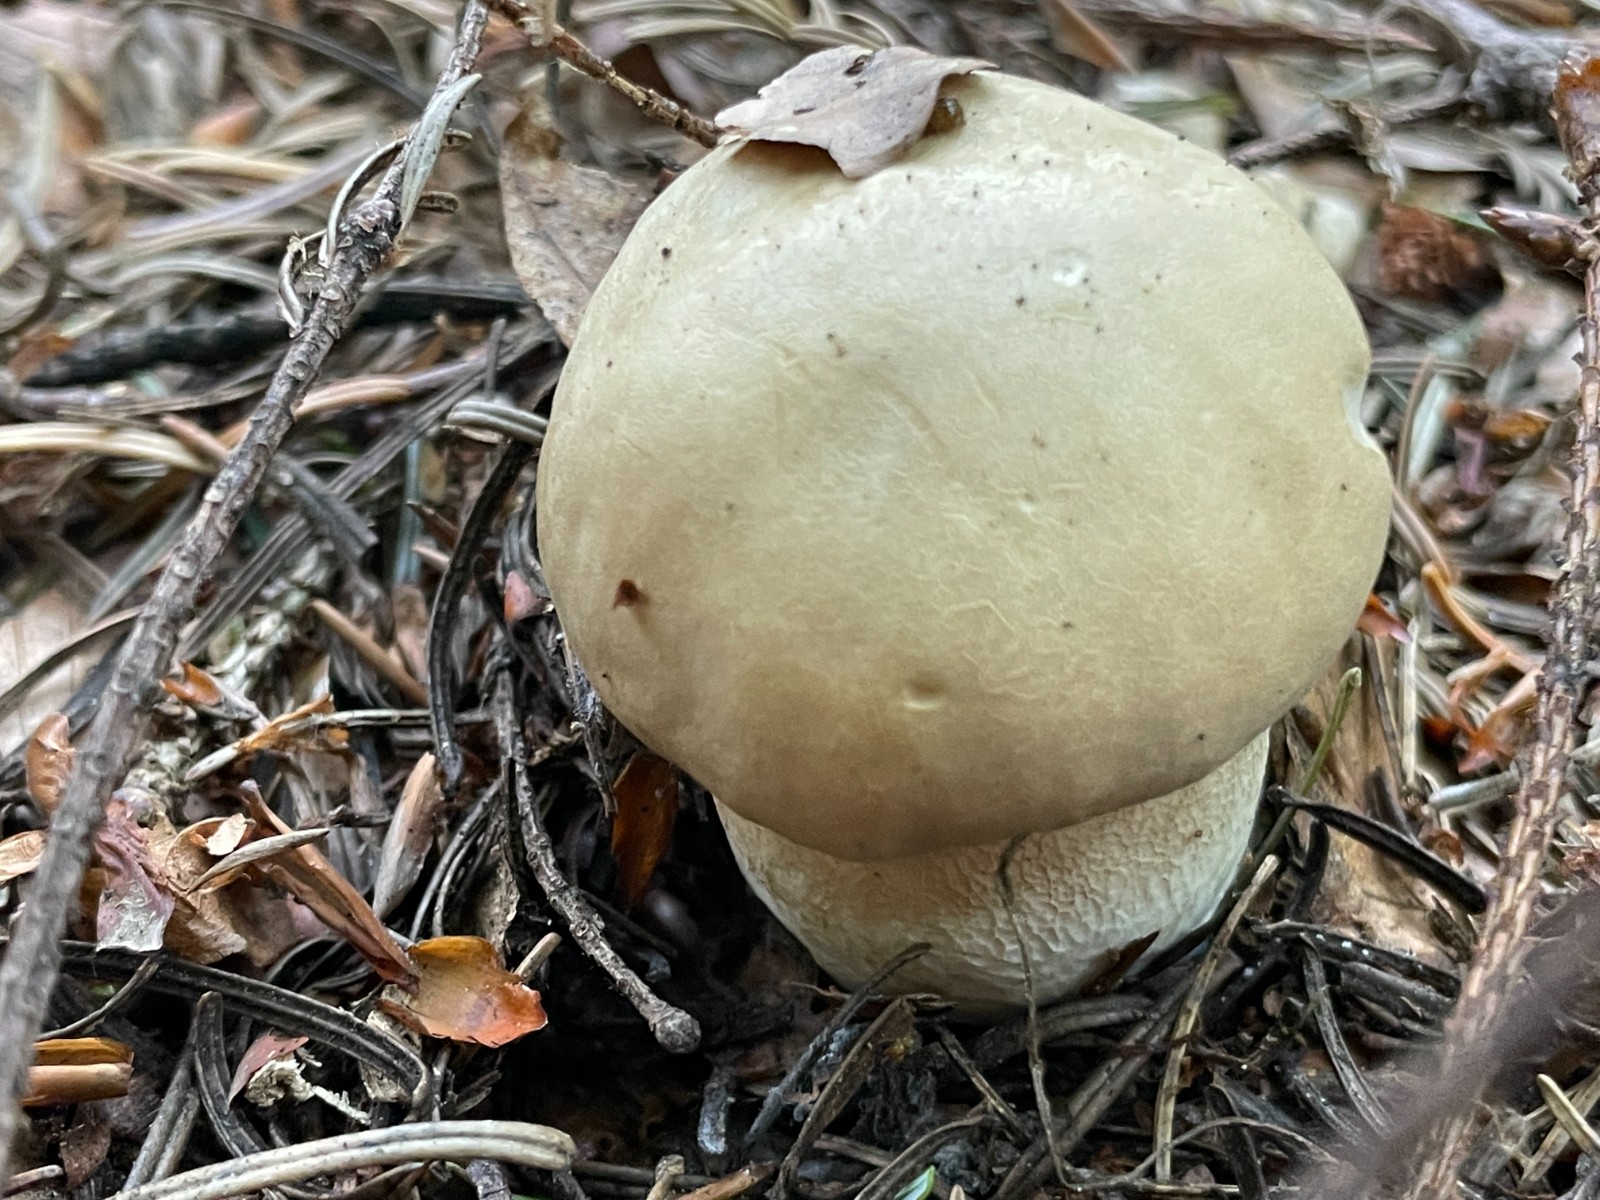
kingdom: Fungi
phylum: Basidiomycota
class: Agaricomycetes
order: Boletales
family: Boletaceae
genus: Boletus
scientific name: Boletus reticulatus
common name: sommer-rørhat
